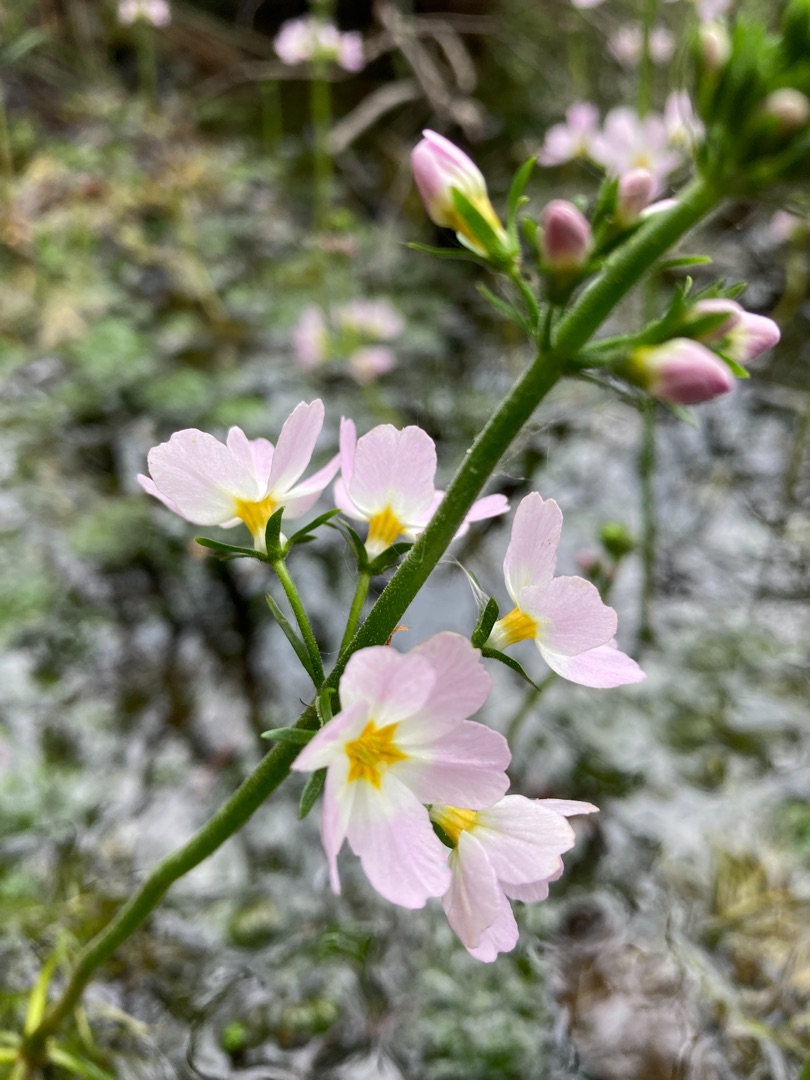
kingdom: Plantae
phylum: Tracheophyta
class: Magnoliopsida
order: Ericales
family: Primulaceae
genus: Hottonia
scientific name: Hottonia palustris
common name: Vandrøllike
